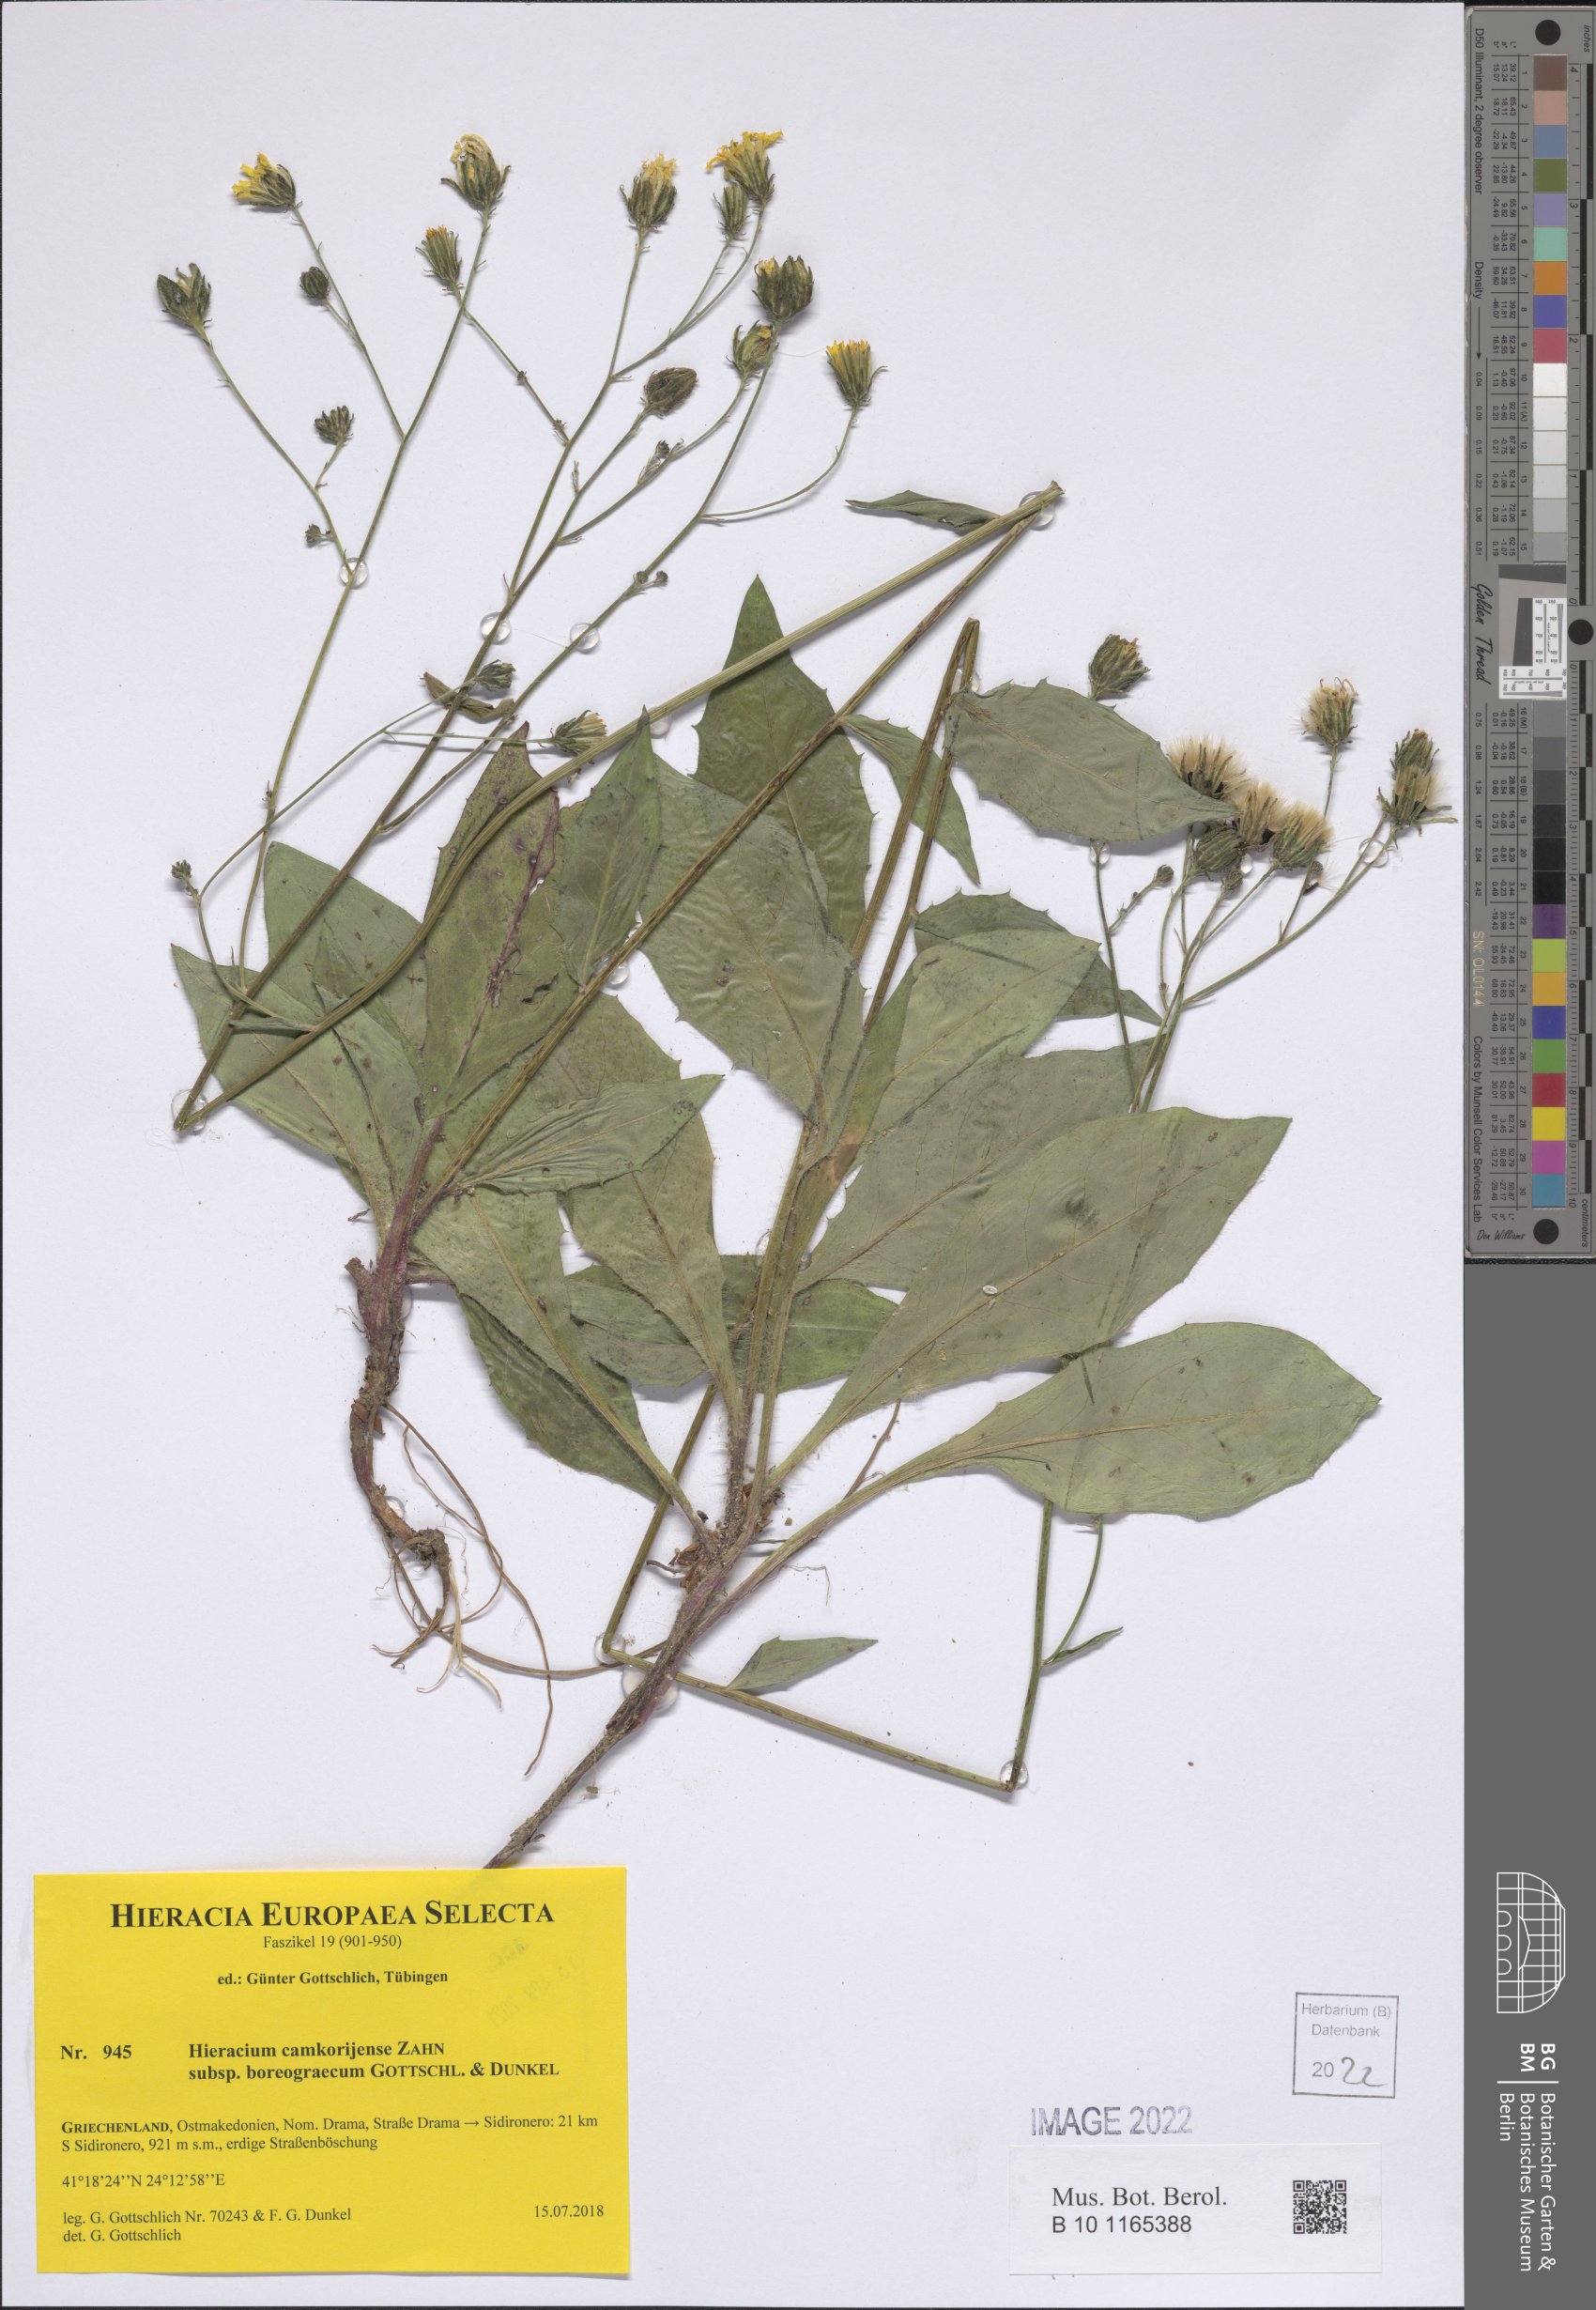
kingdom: Plantae
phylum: Tracheophyta
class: Magnoliopsida
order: Asterales
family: Asteraceae
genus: Hieracium
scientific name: Hieracium camkorijense
